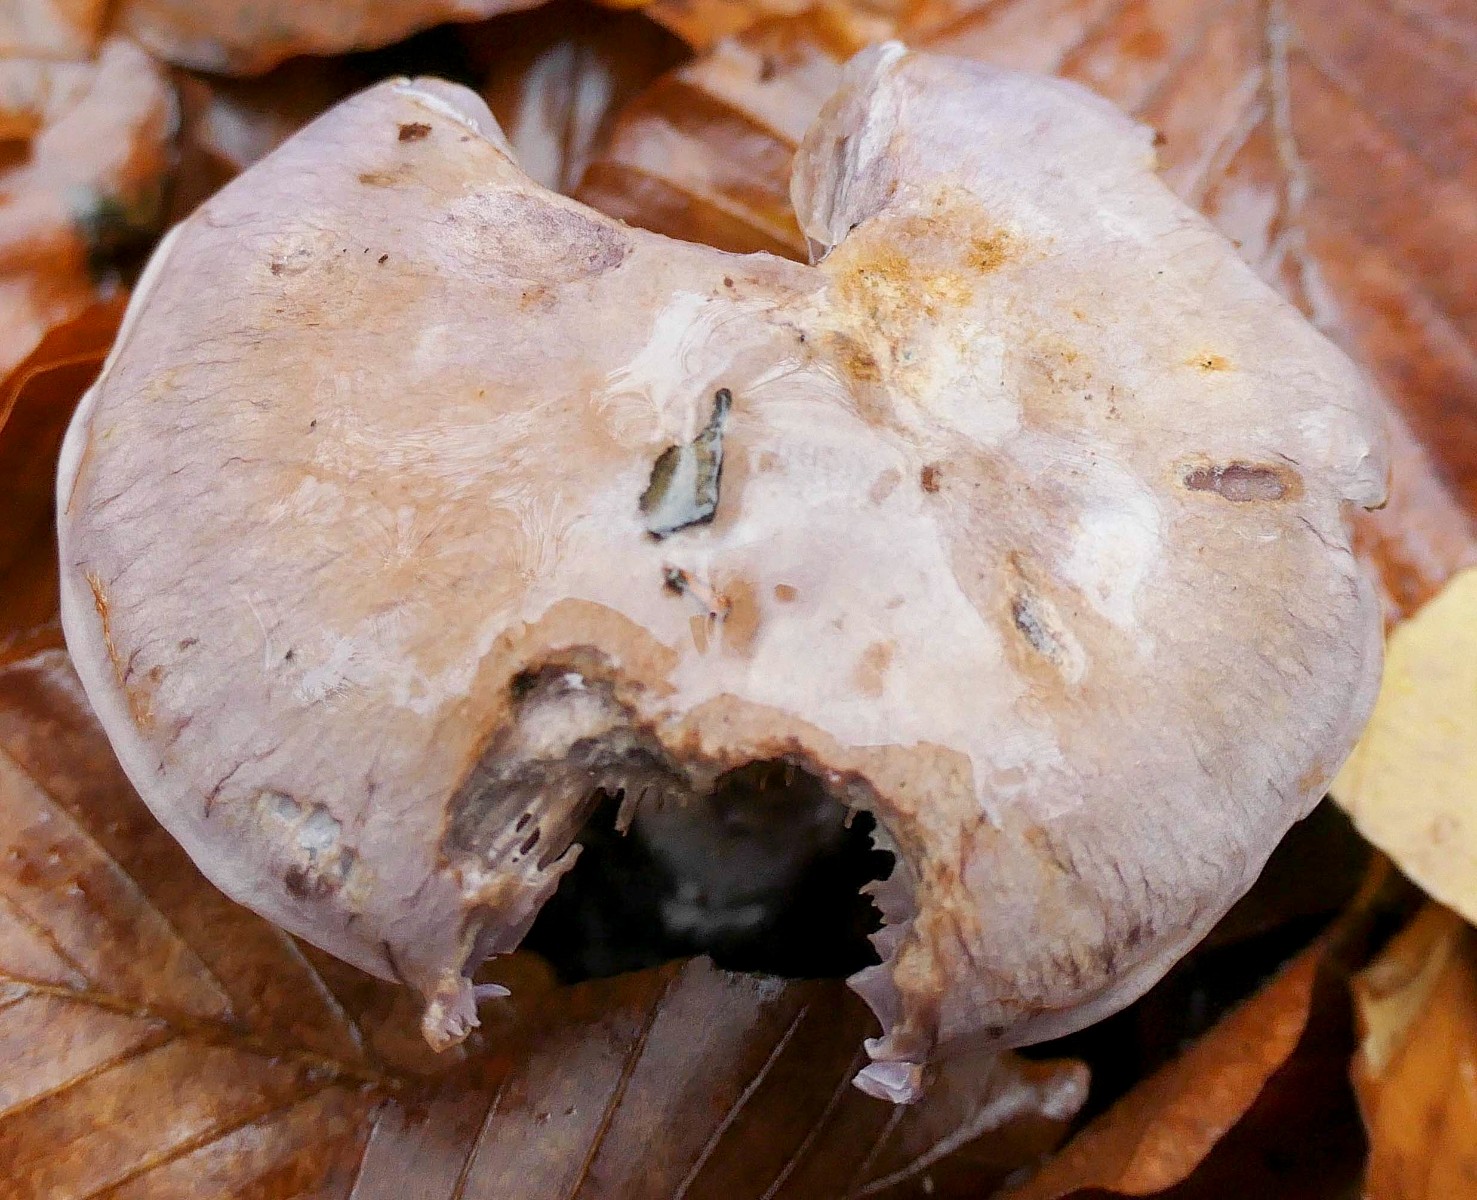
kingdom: Fungi
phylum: Basidiomycota
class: Agaricomycetes
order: Agaricales
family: Cortinariaceae
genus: Cortinarius
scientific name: Cortinarius largus
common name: violetrandet slørhat
